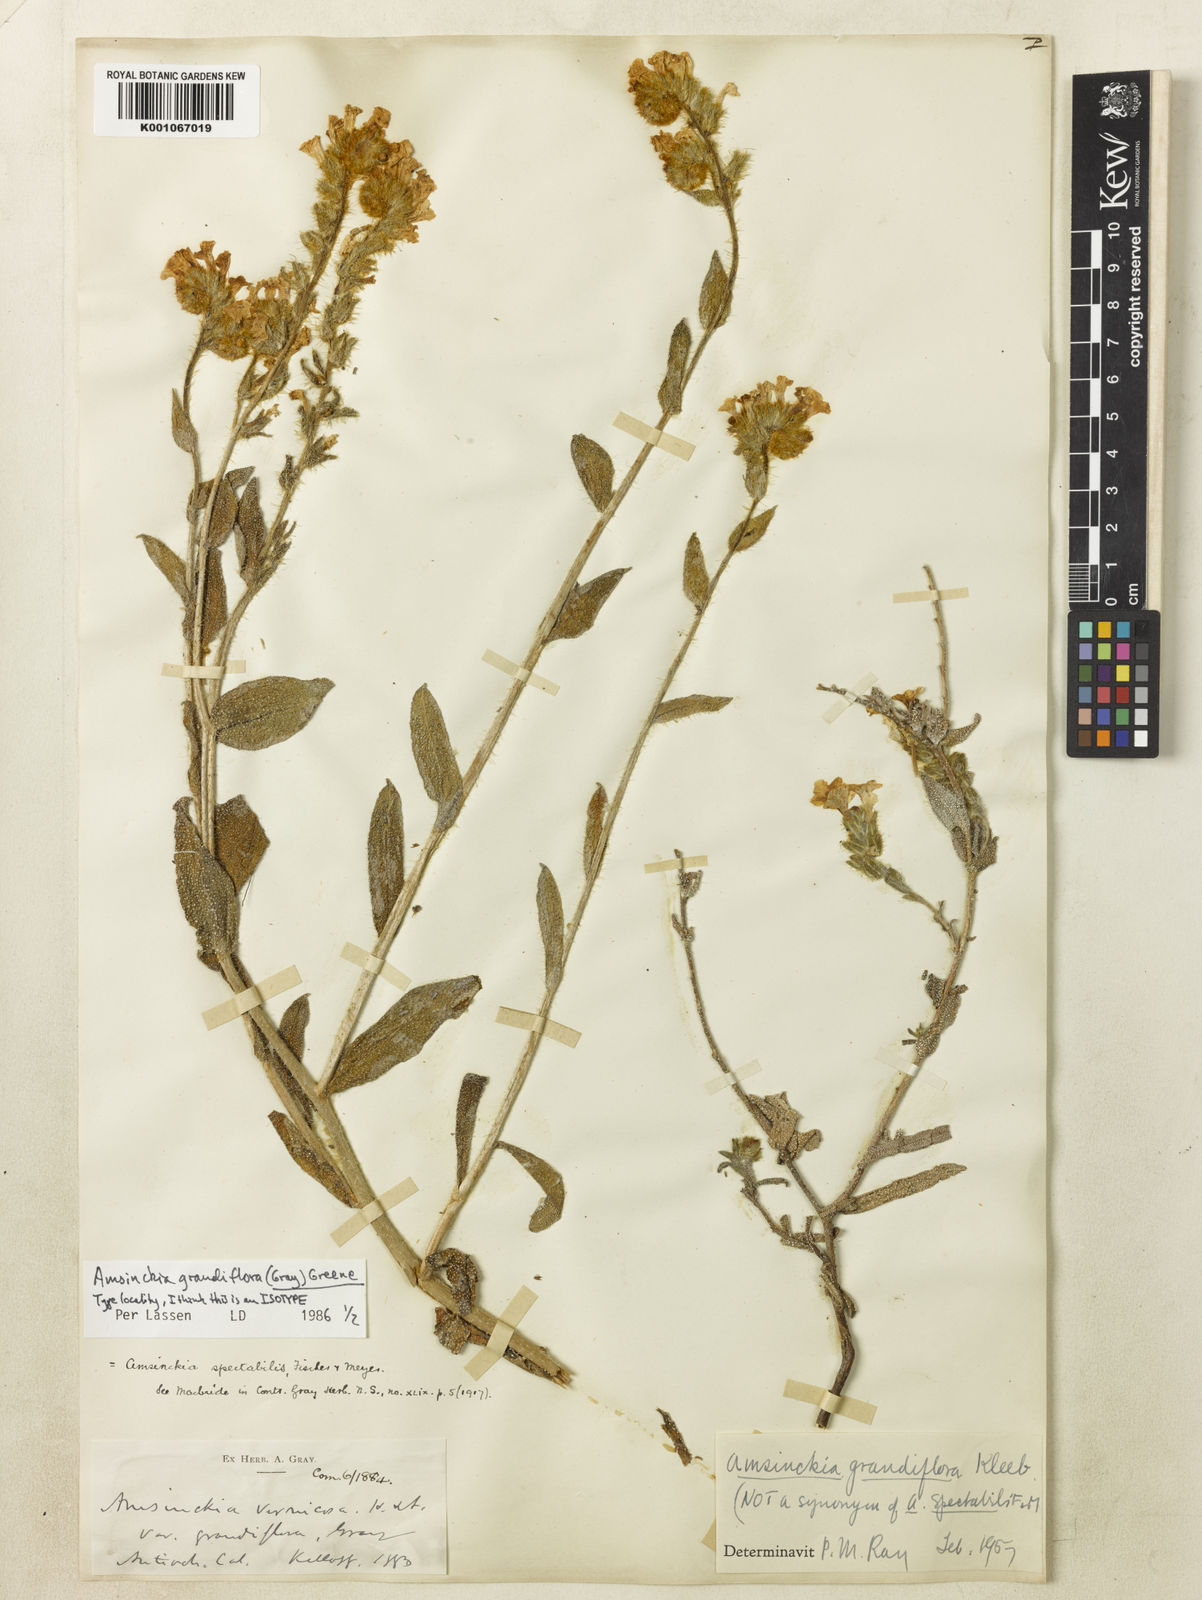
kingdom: Plantae
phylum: Tracheophyta
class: Magnoliopsida
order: Boraginales
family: Boraginaceae
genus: Amsinckia
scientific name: Amsinckia grandiflora
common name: Large-flower fiddleneck
